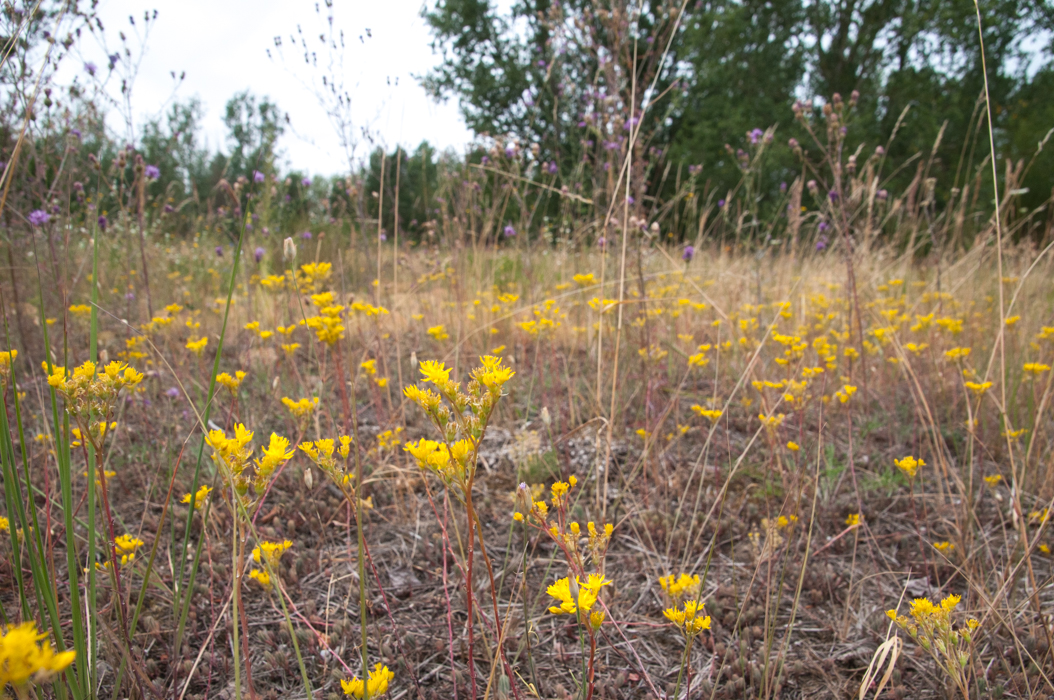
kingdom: Plantae
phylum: Tracheophyta
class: Magnoliopsida
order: Saxifragales
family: Crassulaceae
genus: Sedum
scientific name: Sedum anglicum
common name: English stonecrop
